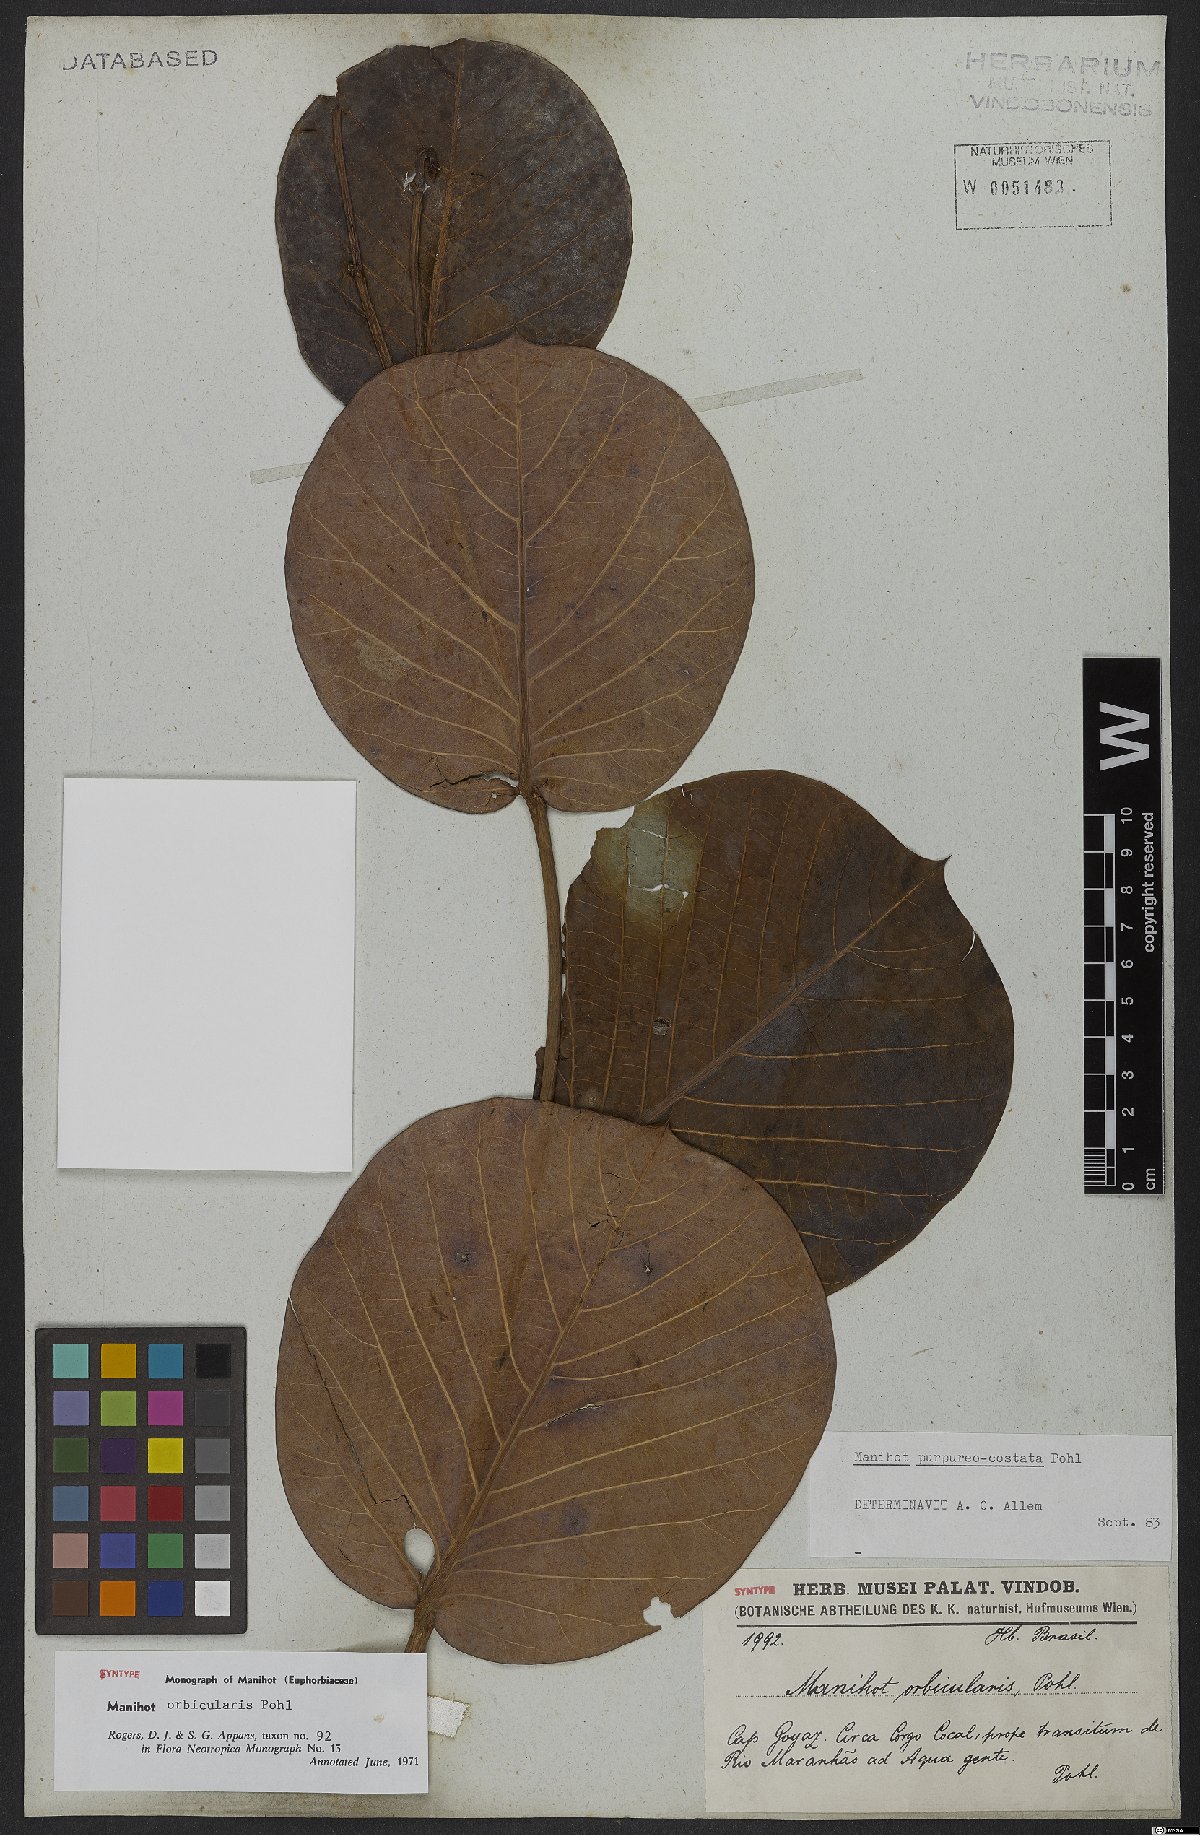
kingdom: Plantae
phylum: Tracheophyta
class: Magnoliopsida
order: Malpighiales
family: Euphorbiaceae
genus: Manihot
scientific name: Manihot orbicularis
